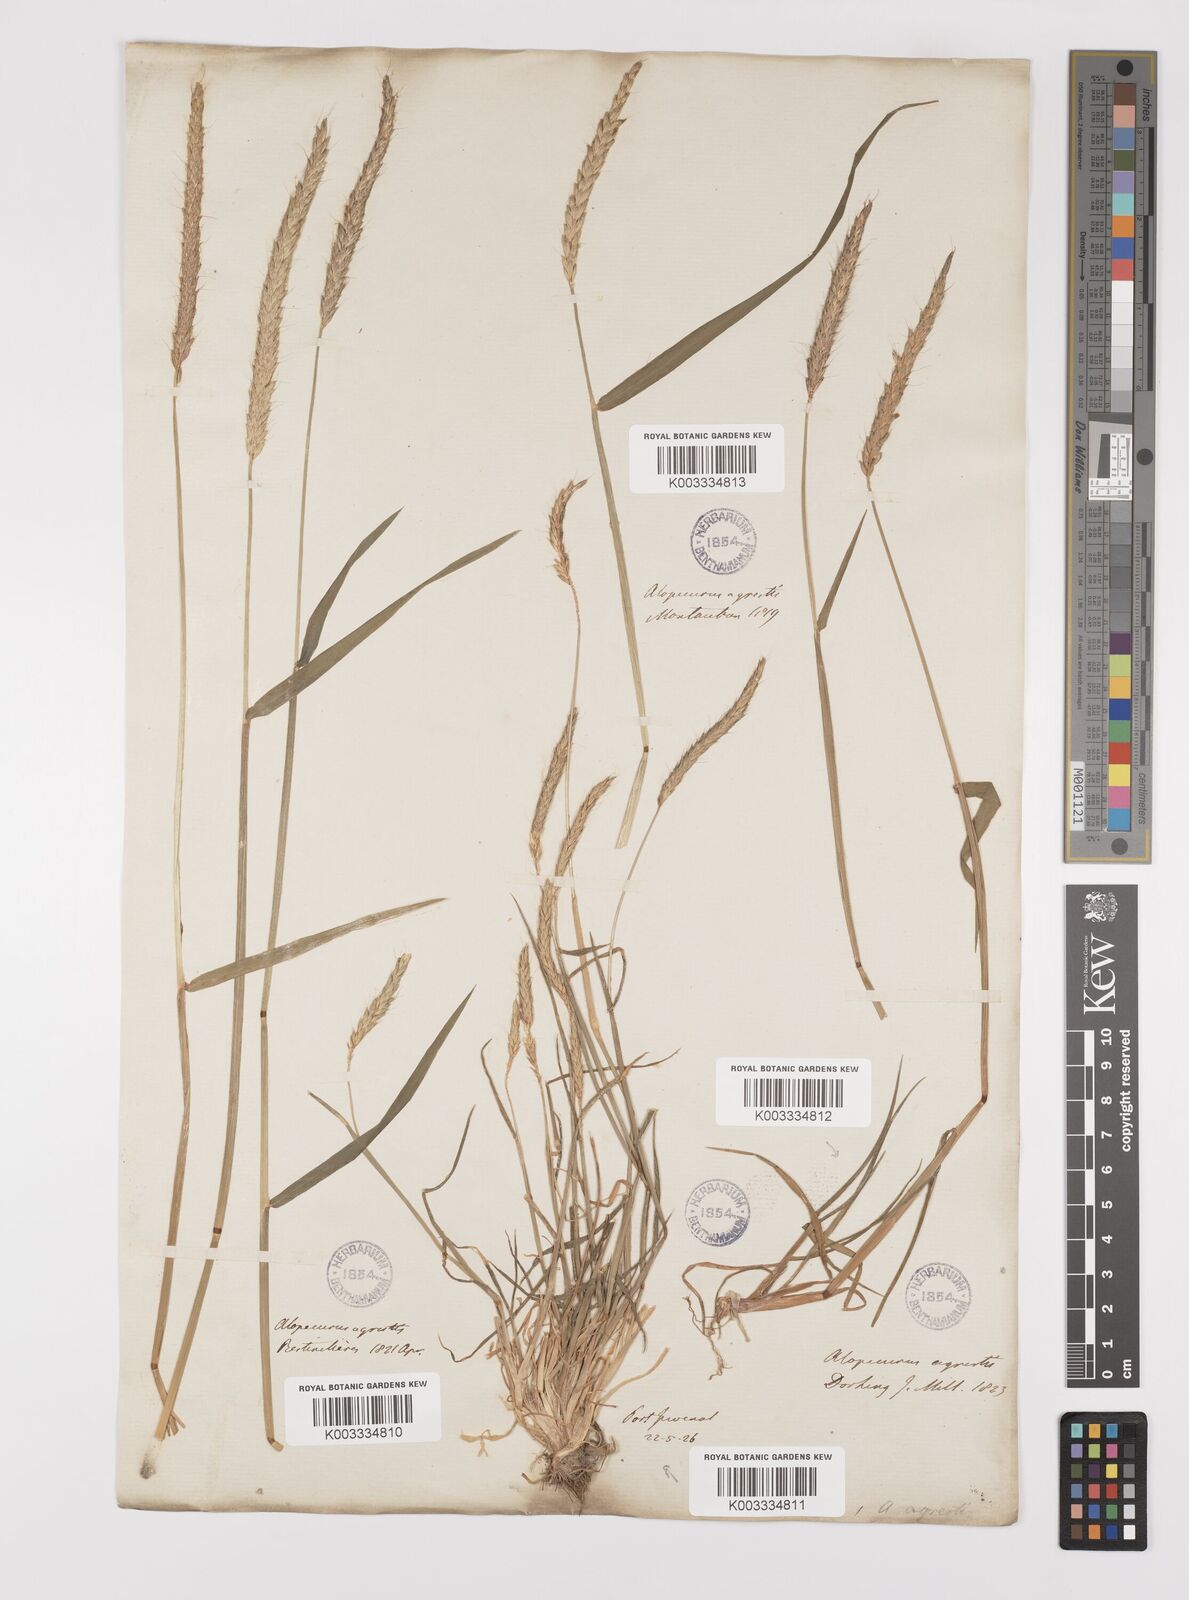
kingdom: Plantae
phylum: Tracheophyta
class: Liliopsida
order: Poales
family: Poaceae
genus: Alopecurus
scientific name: Alopecurus myosuroides
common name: Black-grass
